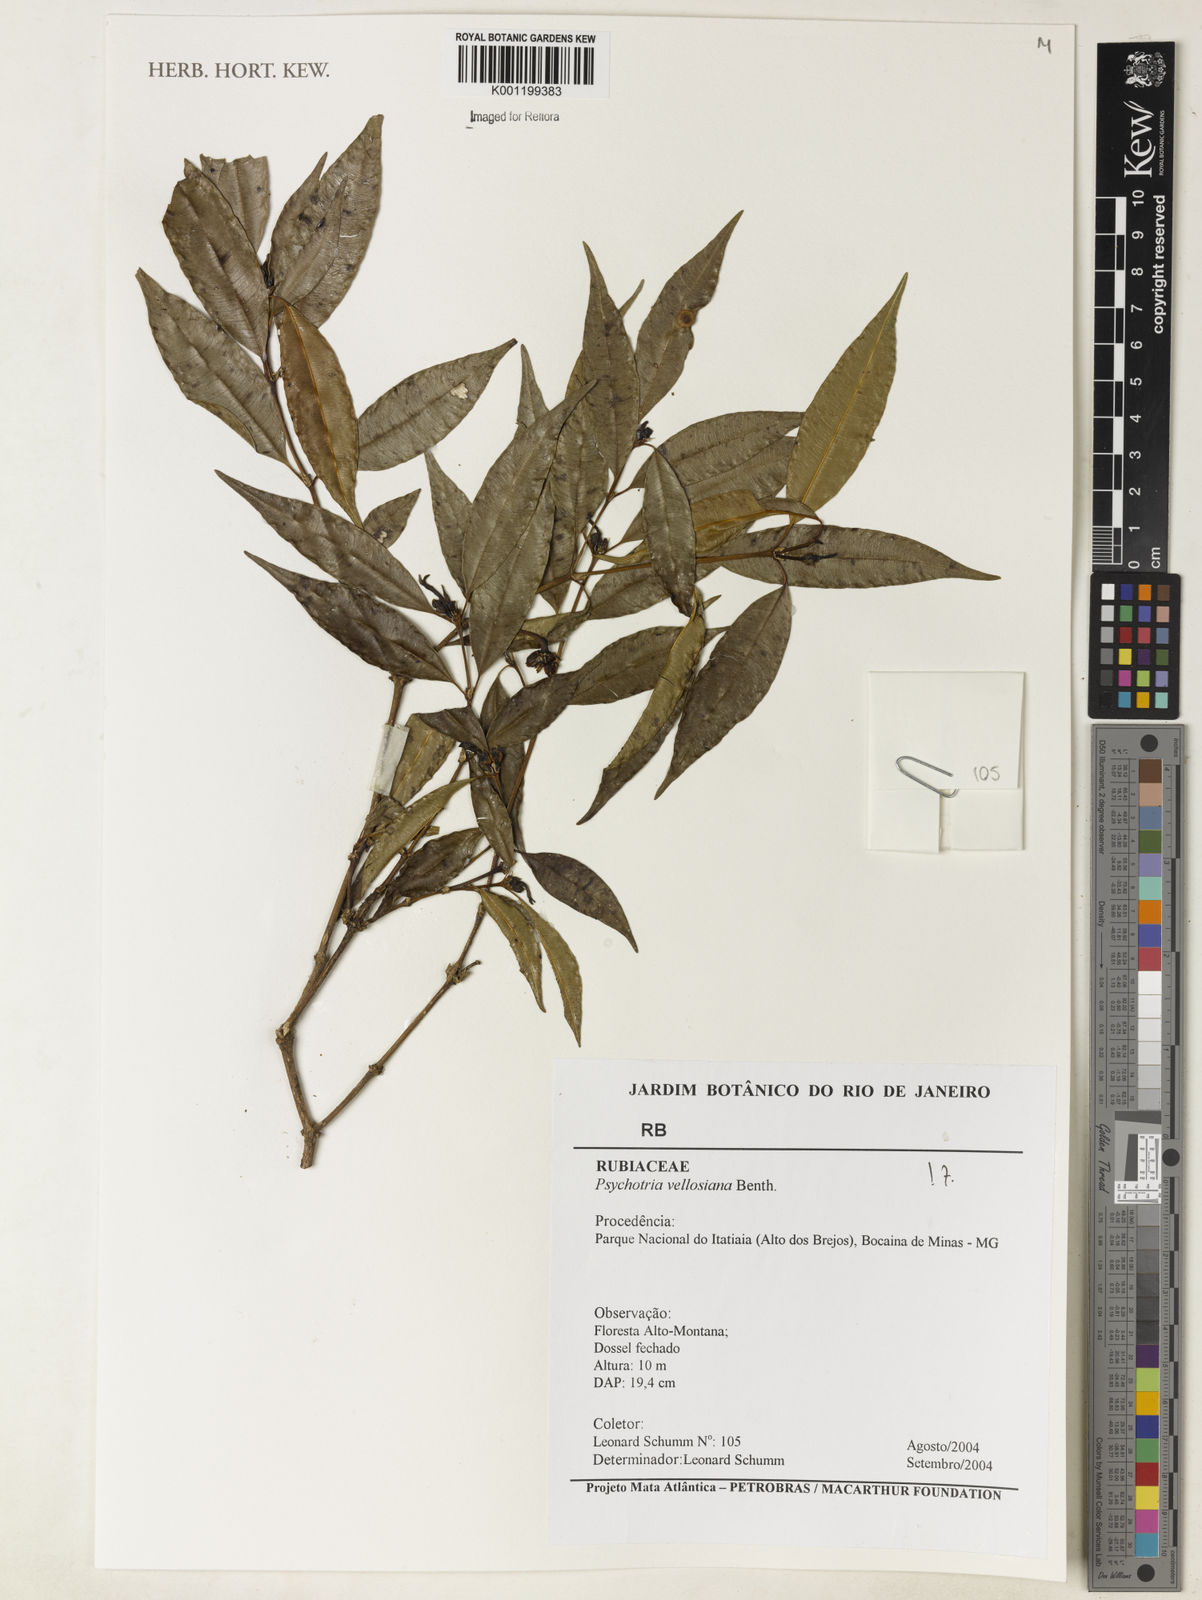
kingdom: Plantae
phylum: Tracheophyta
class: Magnoliopsida
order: Gentianales
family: Rubiaceae
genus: Palicourea
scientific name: Palicourea sessilis
